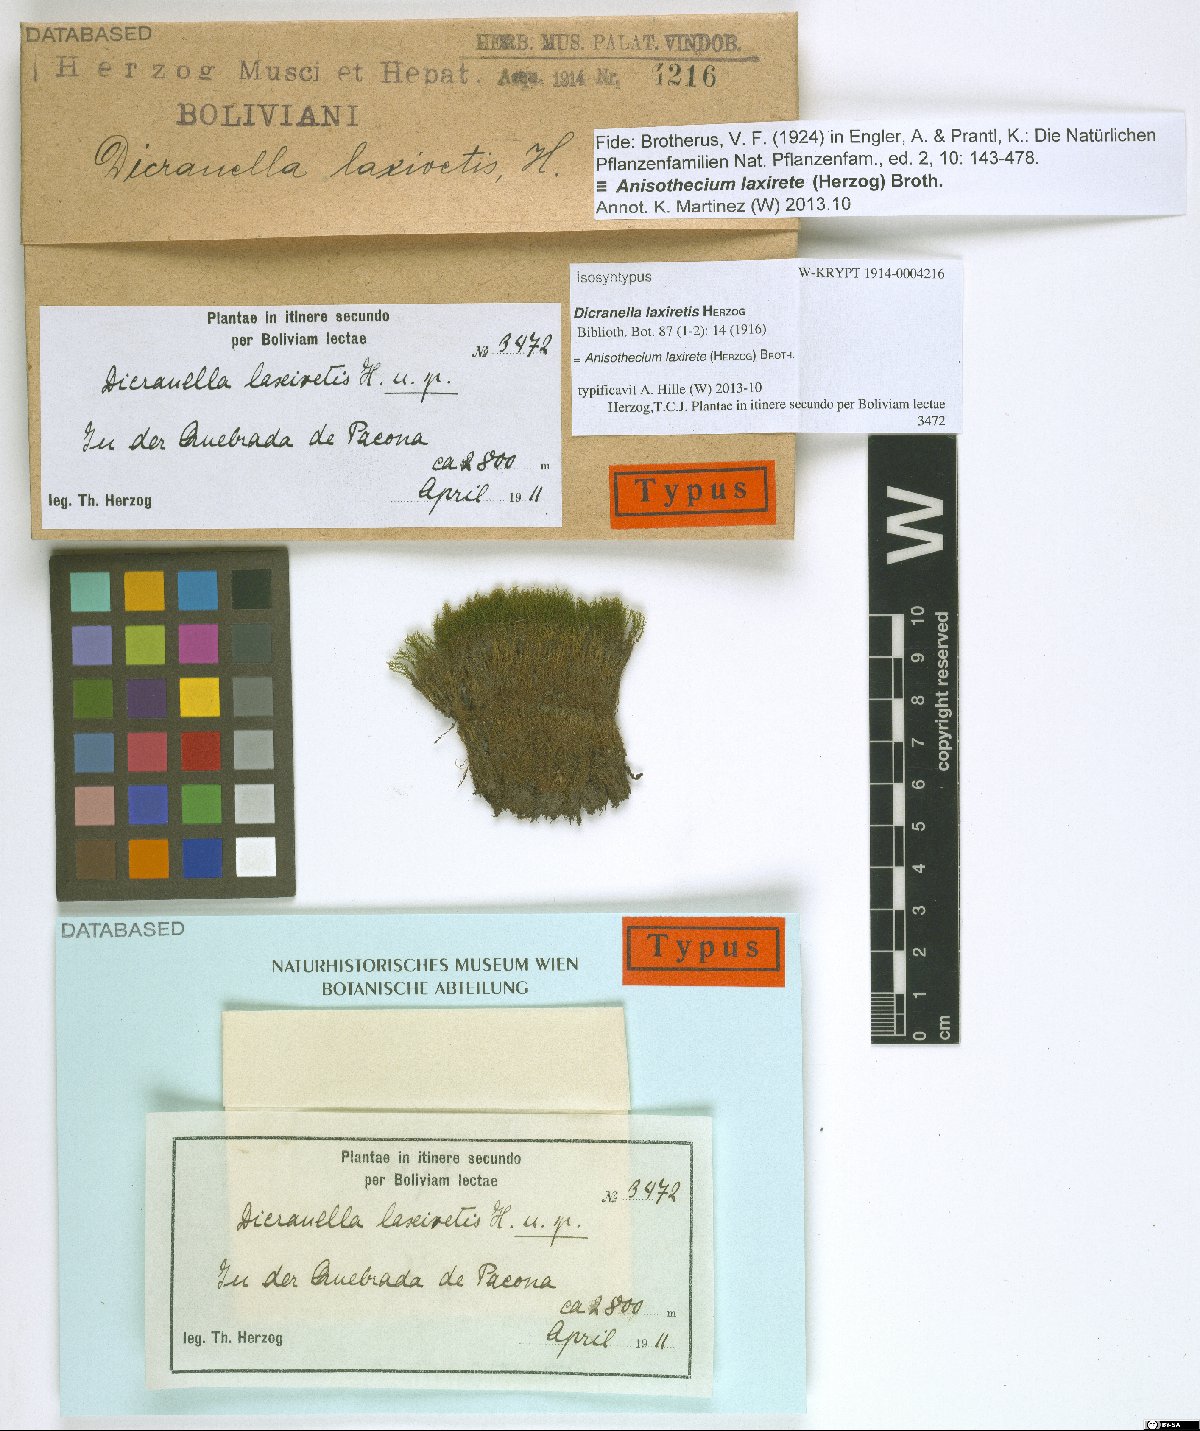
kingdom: Plantae
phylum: Bryophyta
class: Bryopsida
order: Dicranales
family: Dicranellaceae
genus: Dicranella
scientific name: Dicranella hilariana
